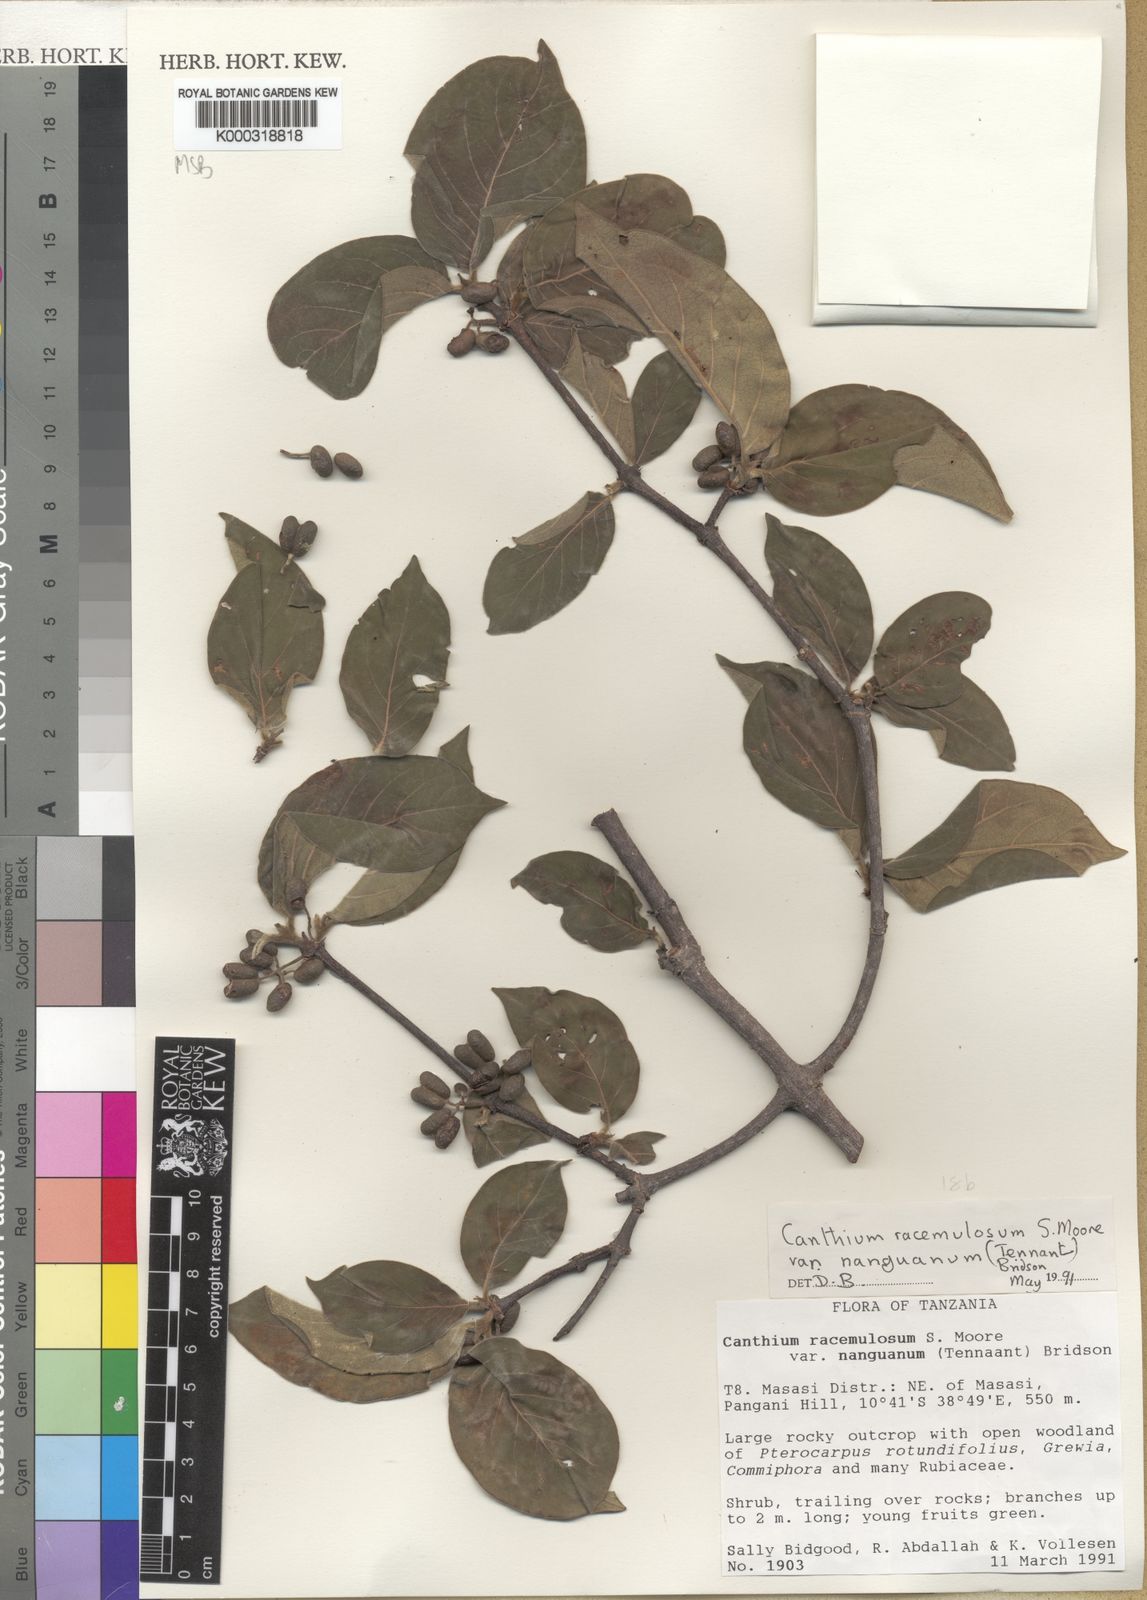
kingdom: Plantae
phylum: Tracheophyta
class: Magnoliopsida
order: Gentianales
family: Rubiaceae
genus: Afrocanthium
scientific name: Afrocanthium racemulosum
